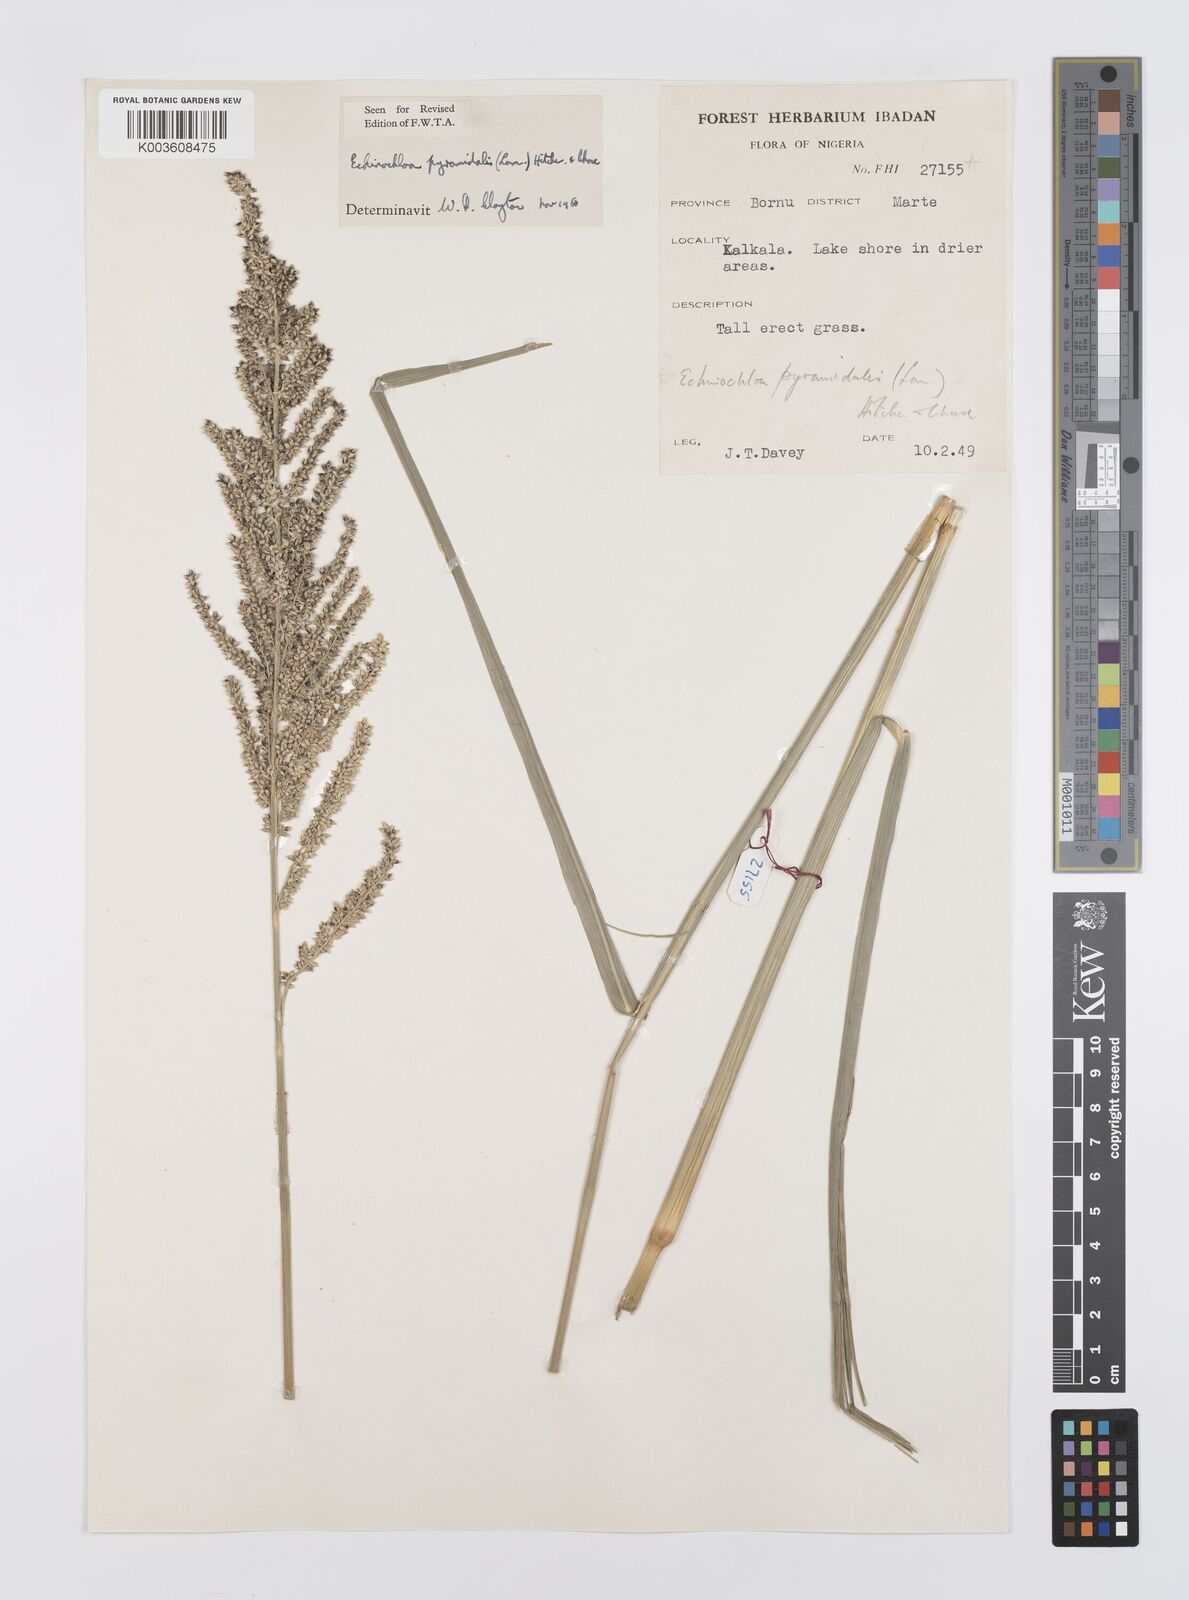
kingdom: Plantae
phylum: Tracheophyta
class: Liliopsida
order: Poales
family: Poaceae
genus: Echinochloa
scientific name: Echinochloa pyramidalis
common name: Antelope grass
